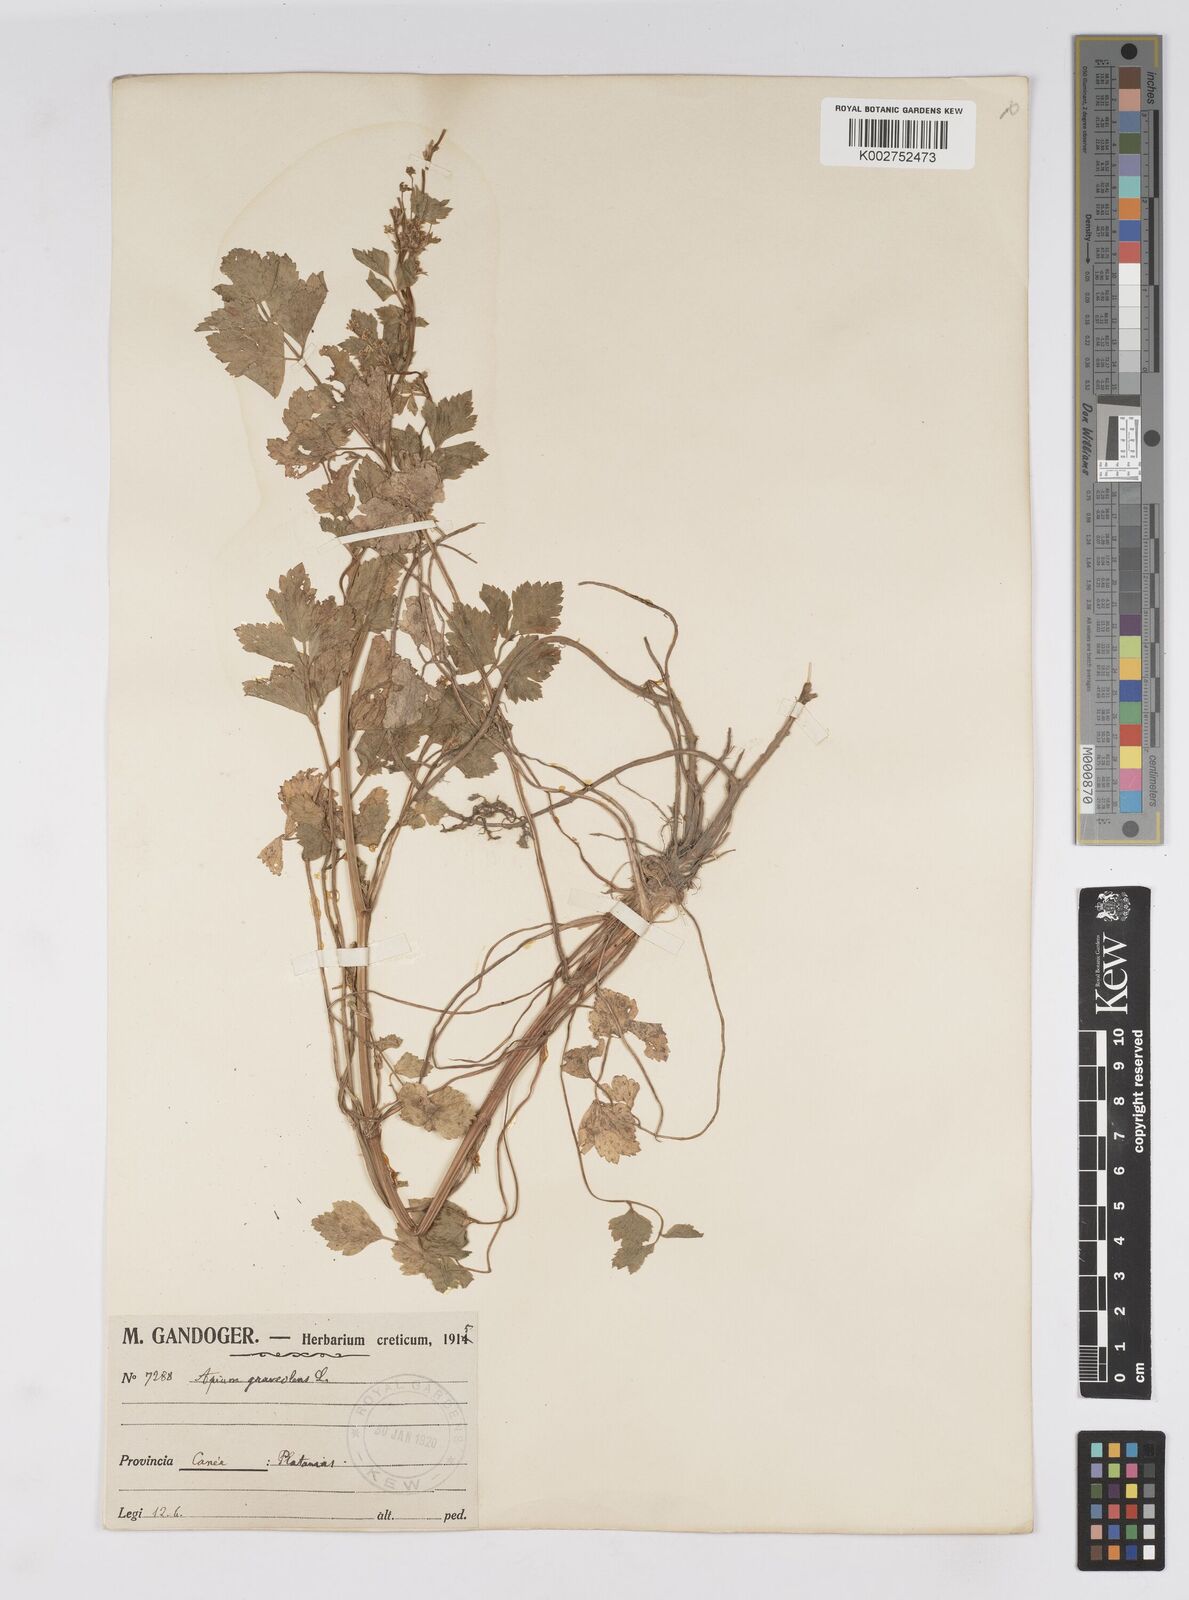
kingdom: Plantae
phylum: Tracheophyta
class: Magnoliopsida
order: Apiales
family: Apiaceae
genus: Apium
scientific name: Apium graveolens
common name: Wild celery
